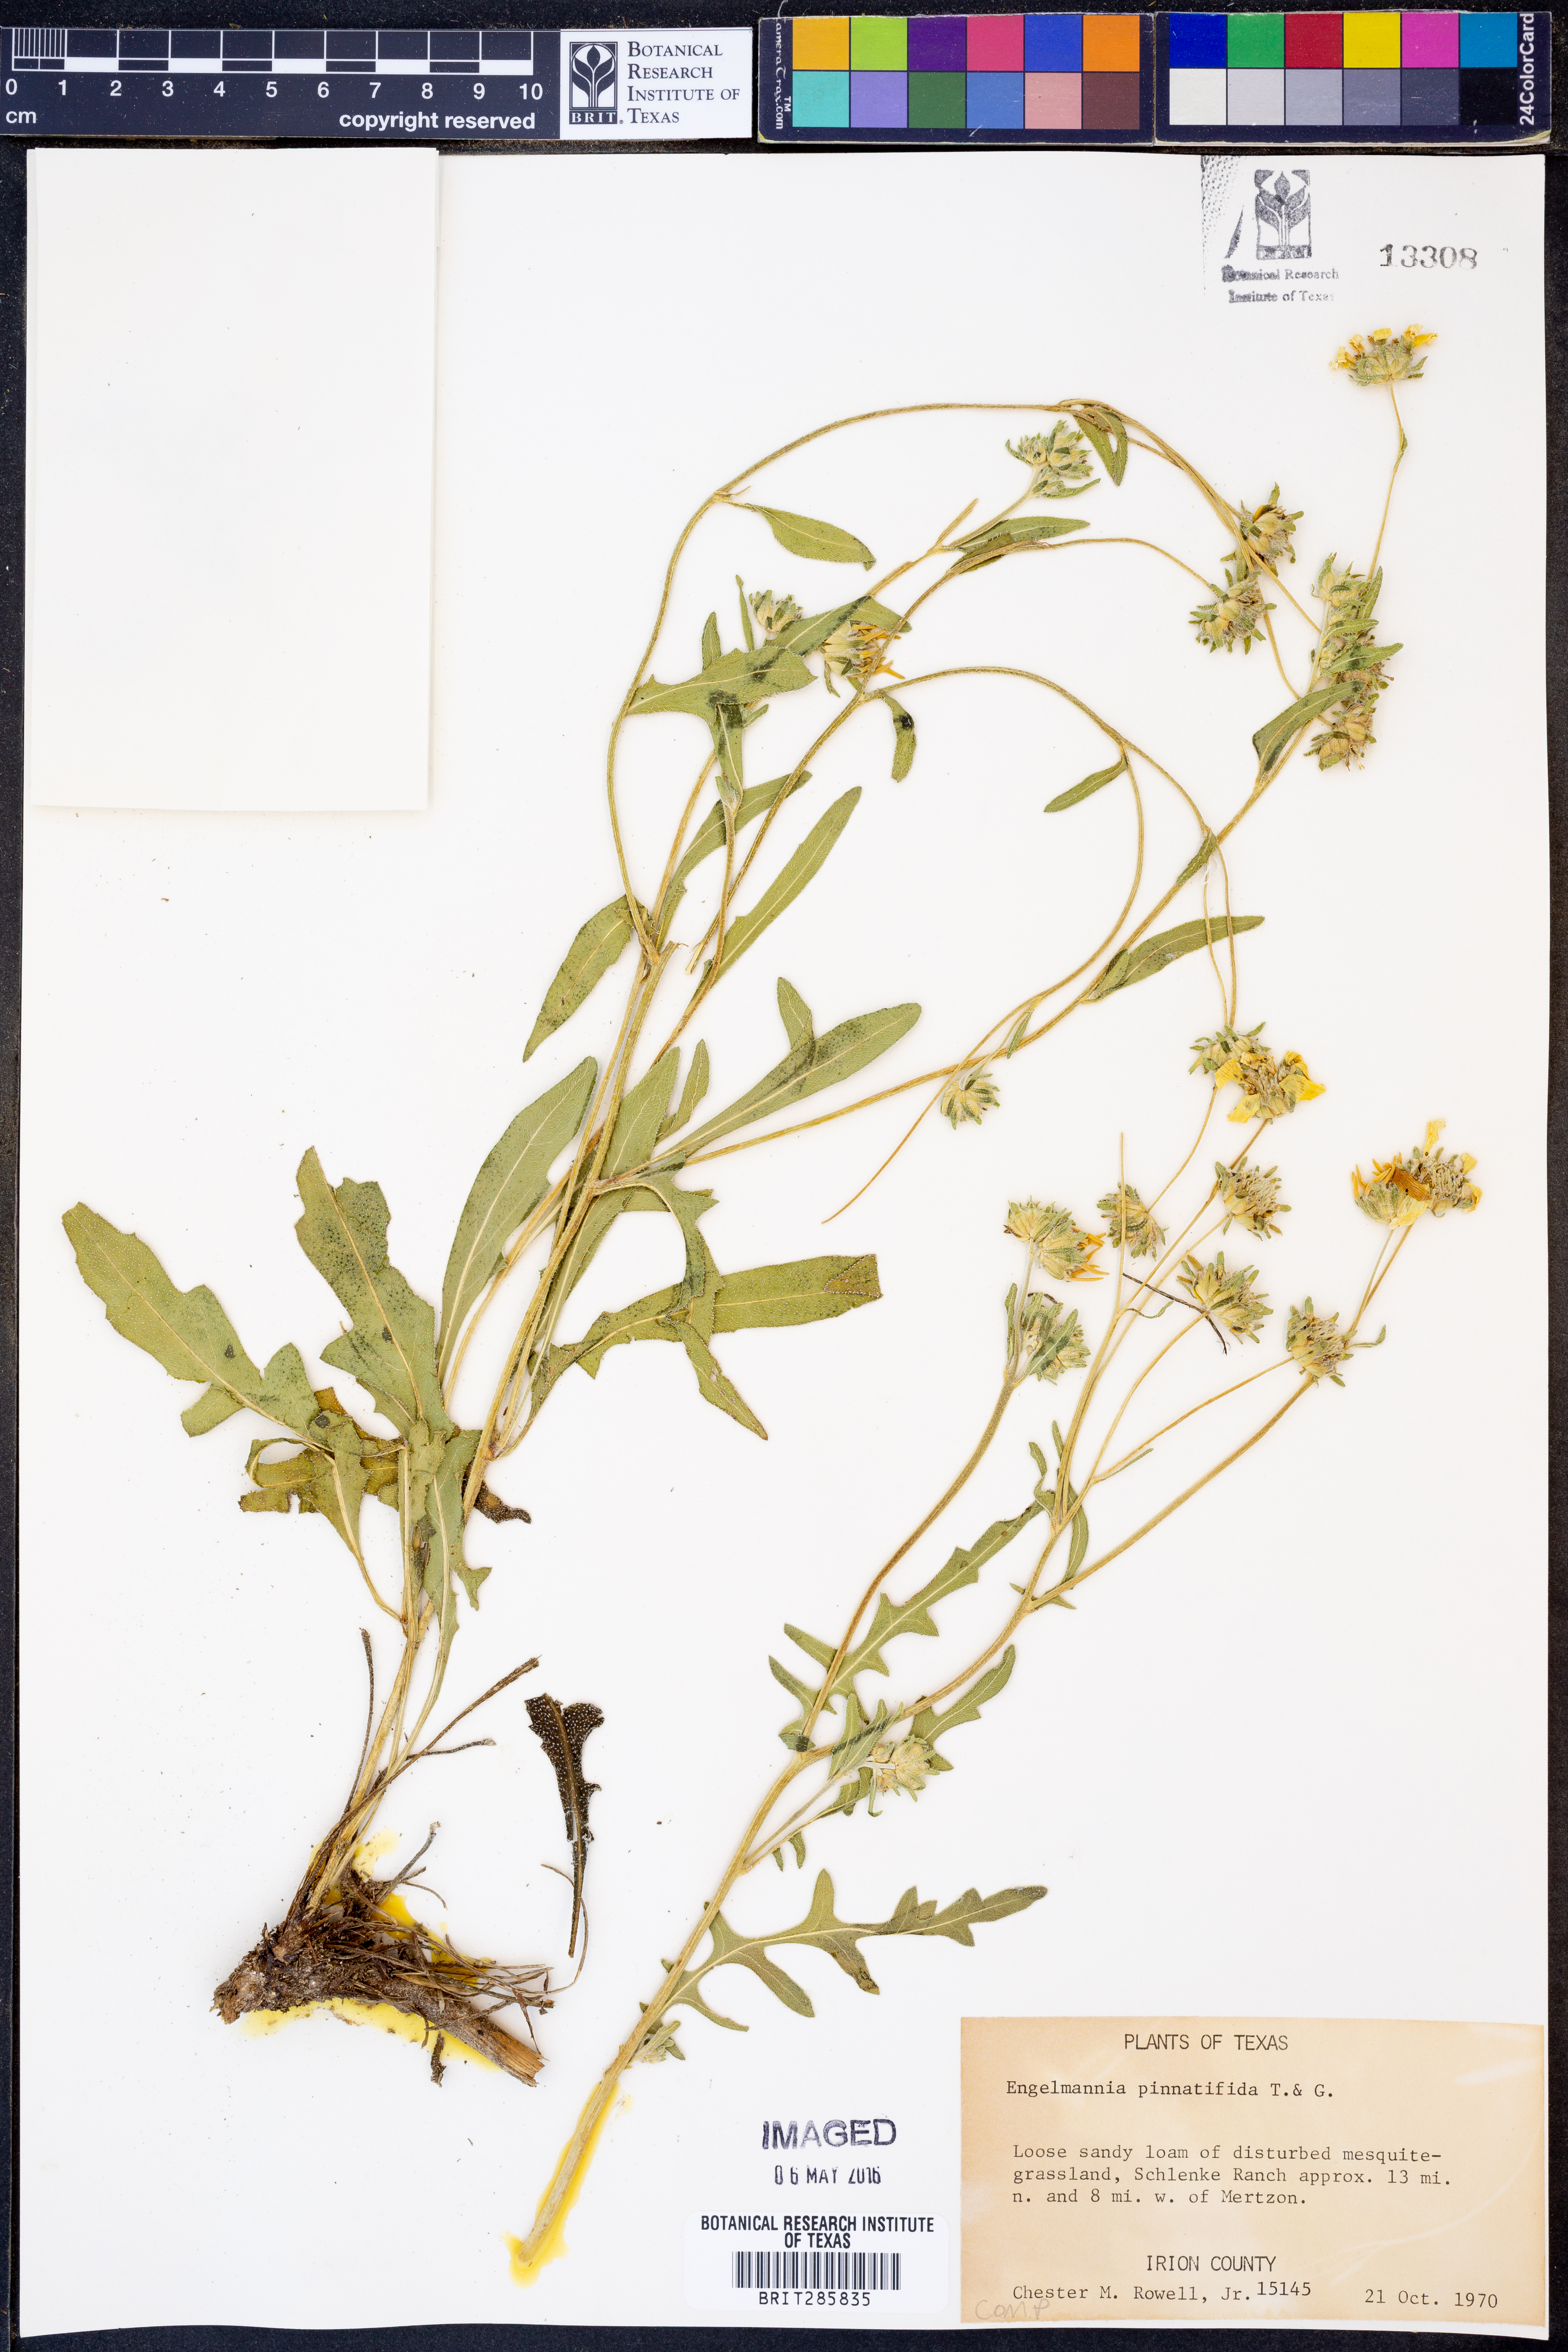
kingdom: Plantae
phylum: Tracheophyta
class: Magnoliopsida
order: Asterales
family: Asteraceae
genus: Engelmannia
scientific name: Engelmannia peristenia
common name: Engelmann's daisy
